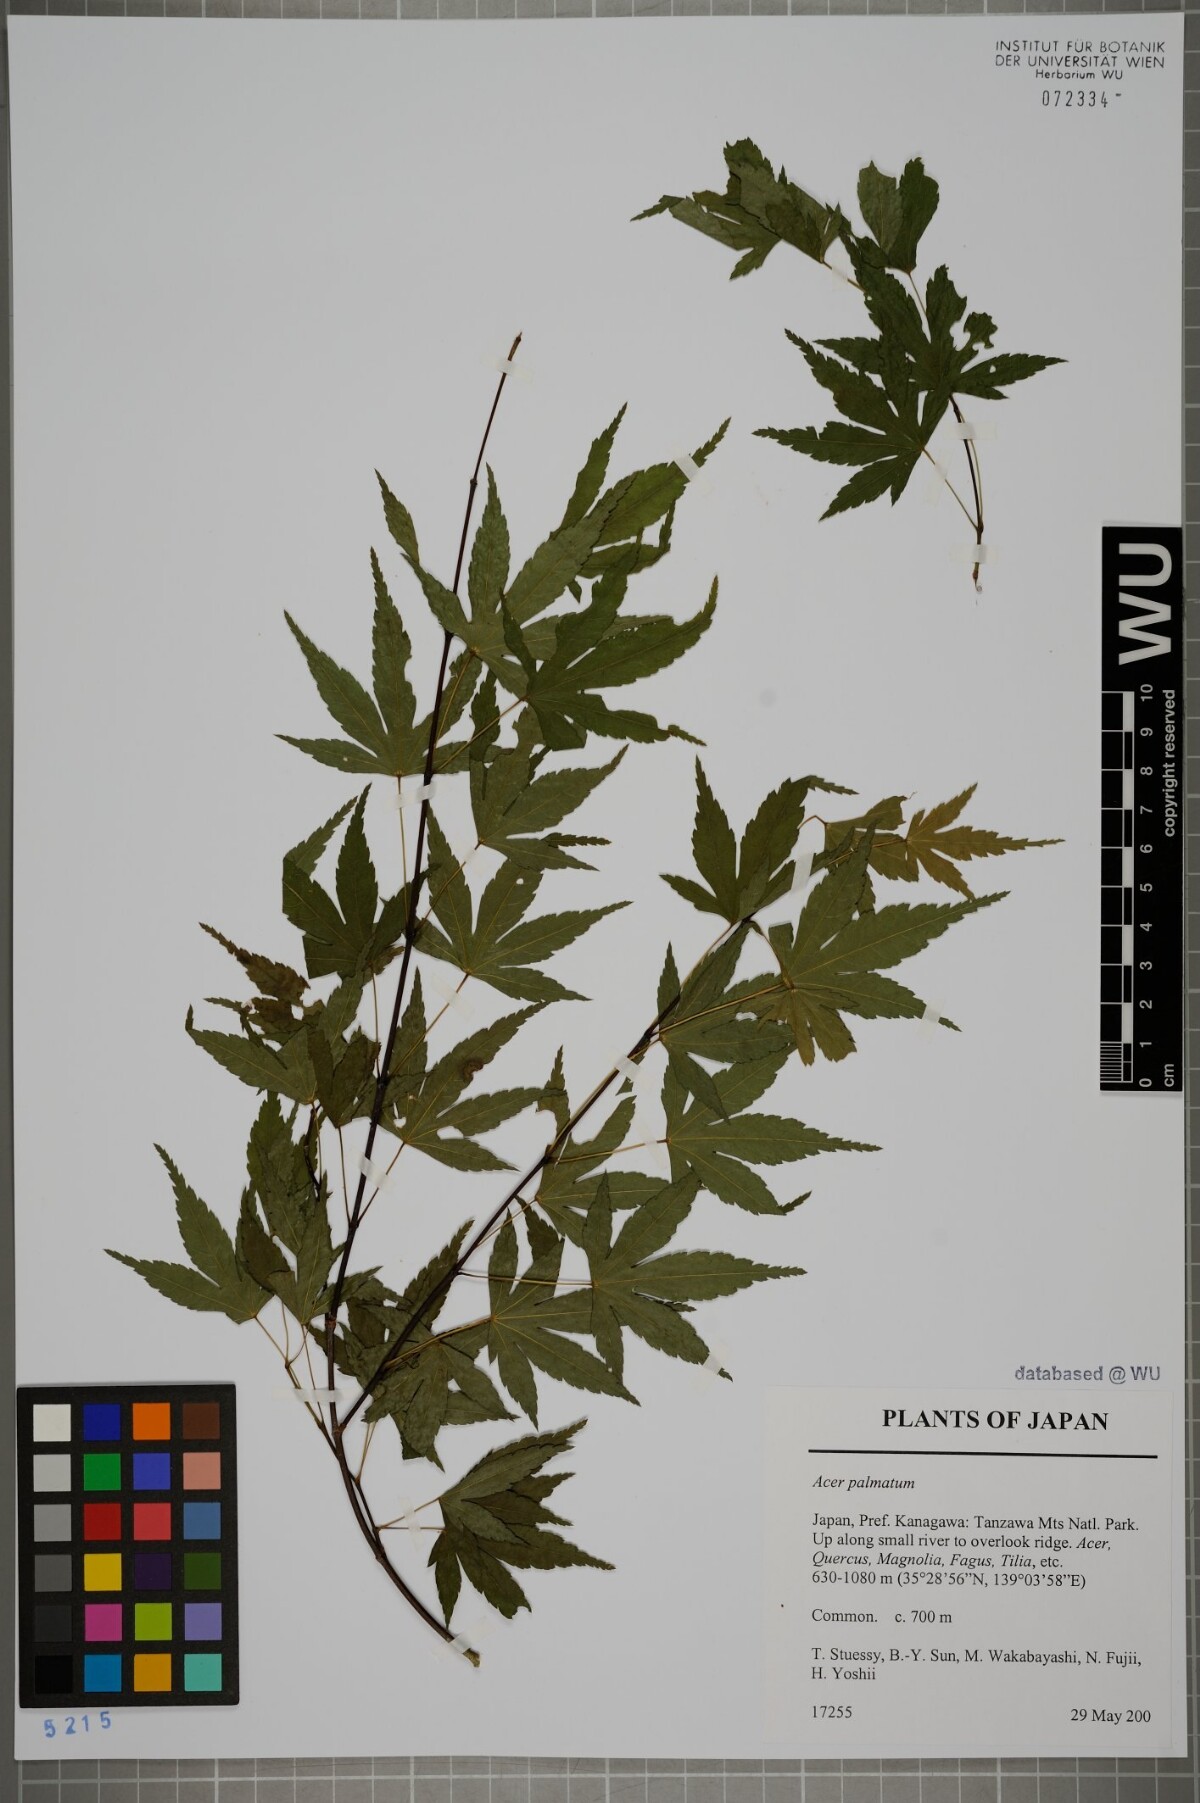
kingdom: Plantae
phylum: Tracheophyta
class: Magnoliopsida
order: Sapindales
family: Sapindaceae
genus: Acer
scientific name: Acer palmatum
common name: Japanese maple
